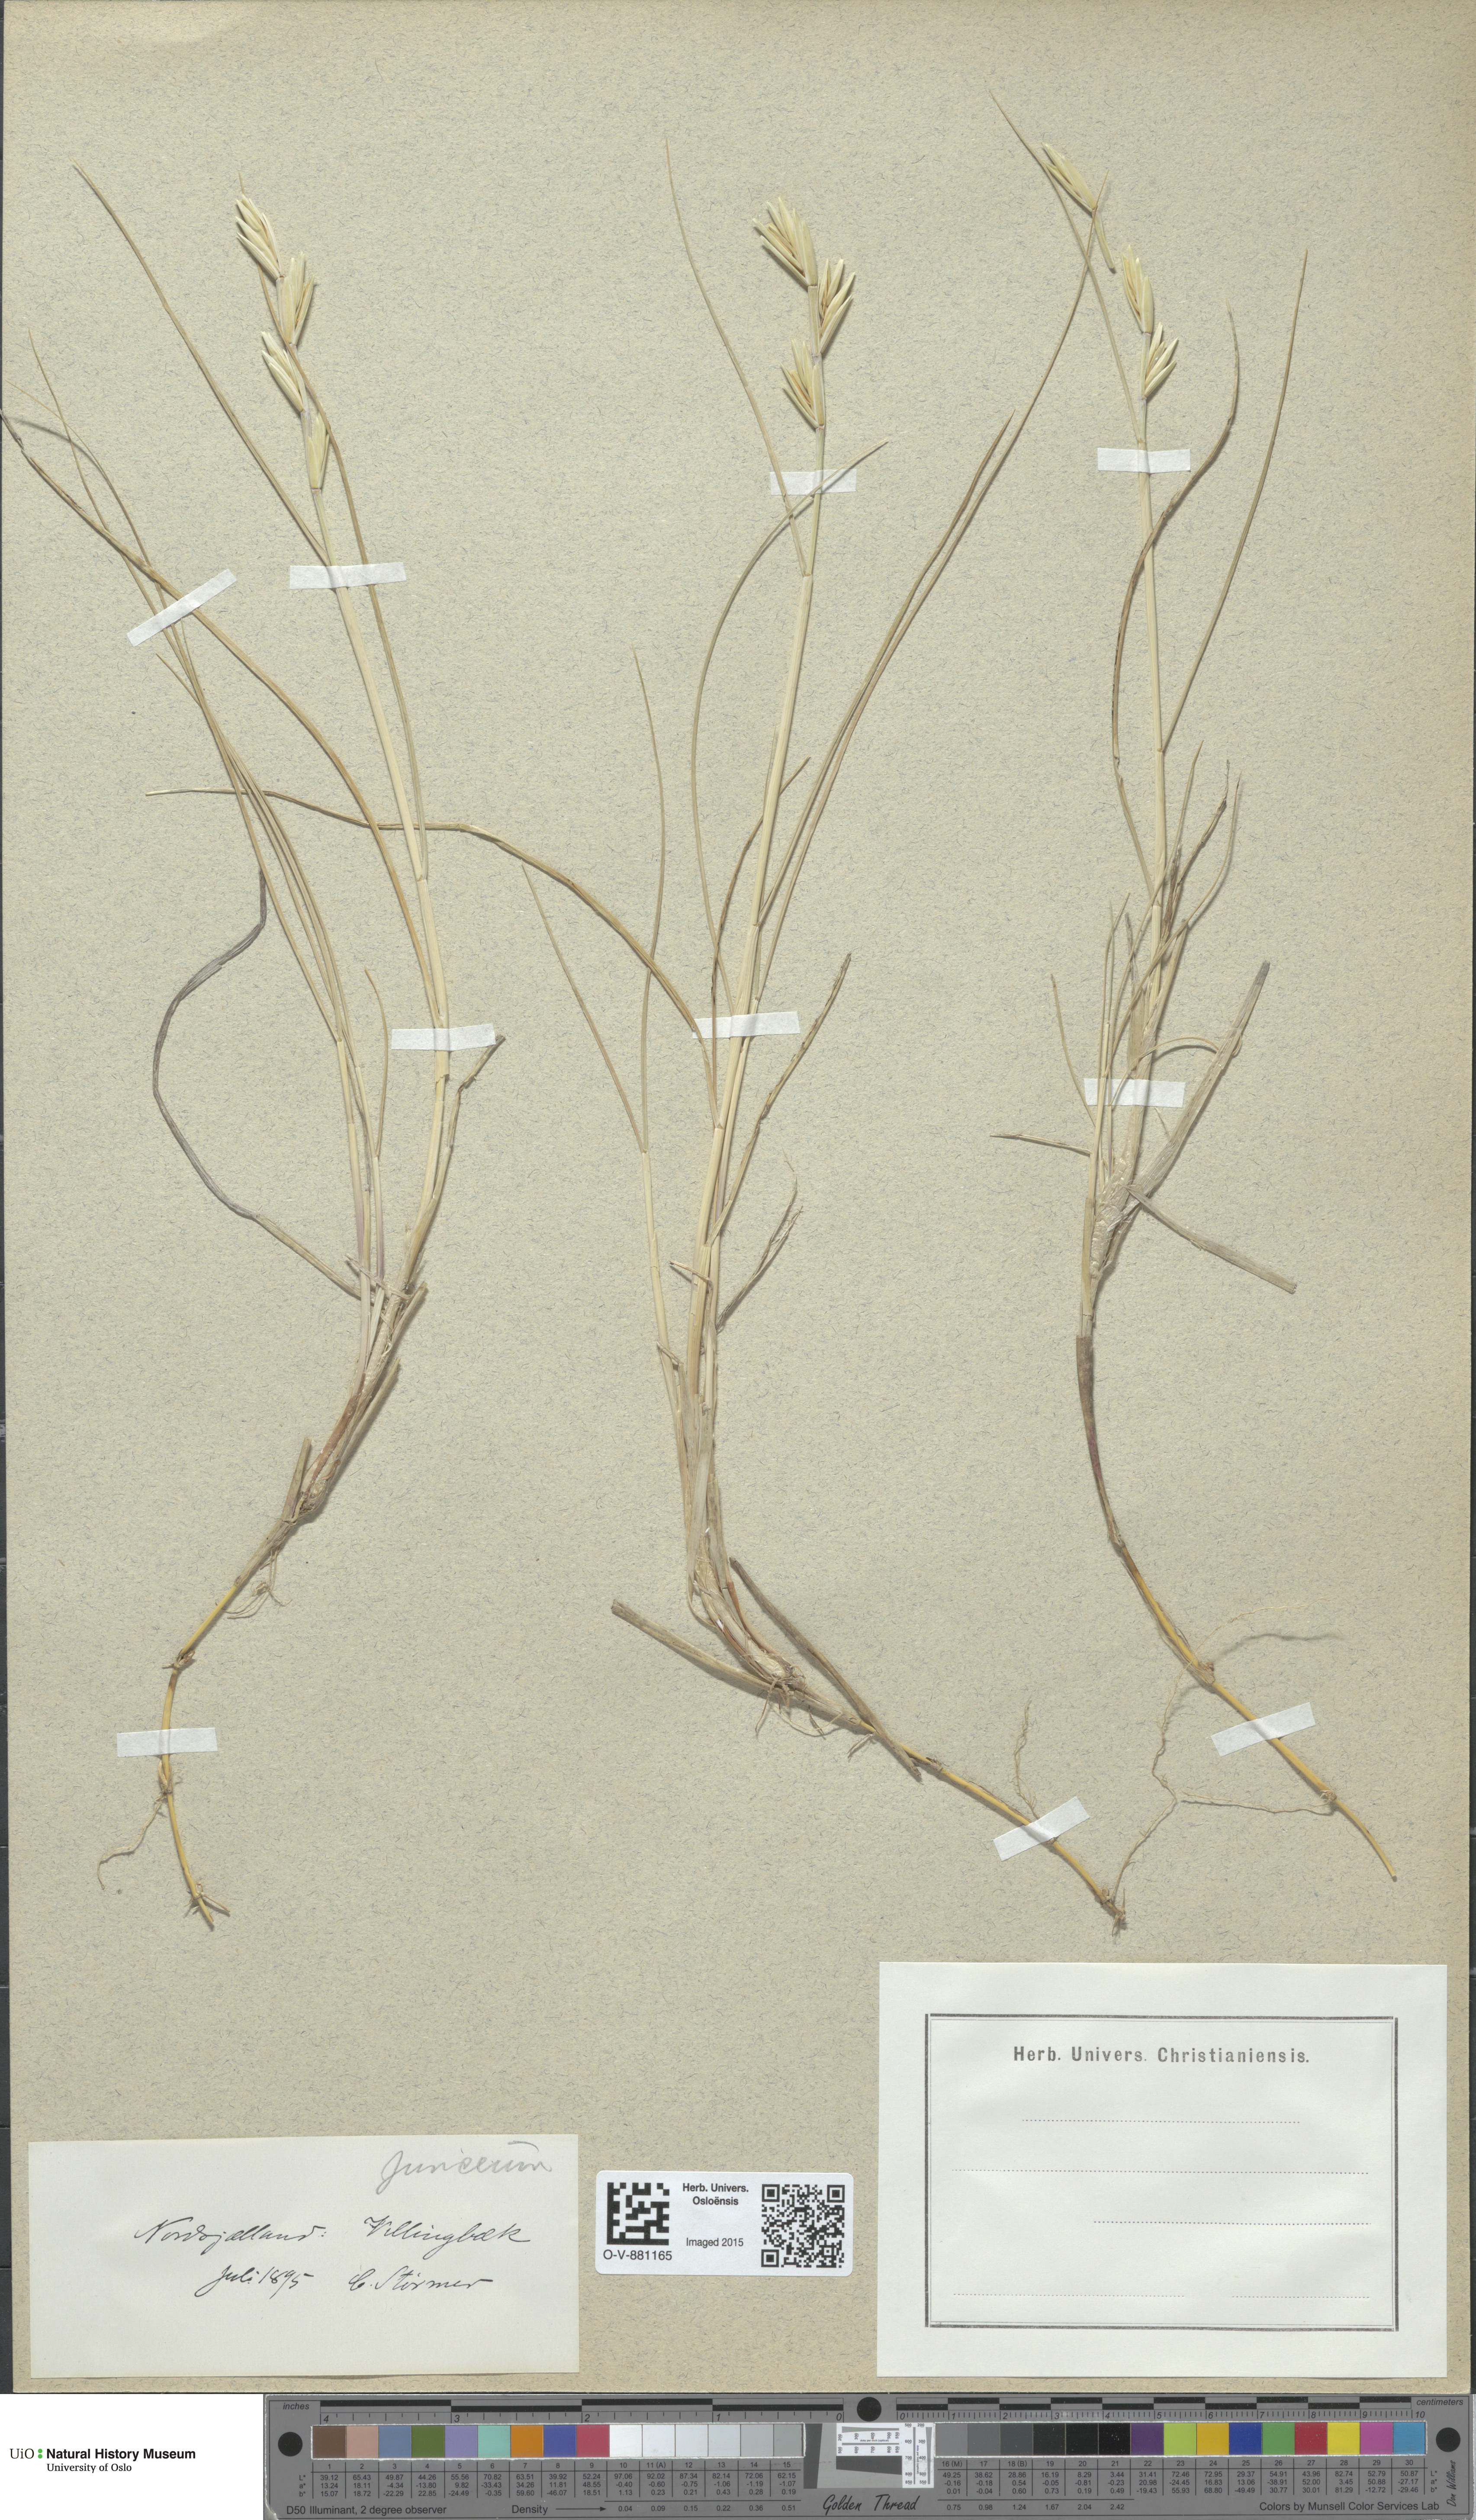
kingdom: Plantae
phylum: Tracheophyta
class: Liliopsida
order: Poales
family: Poaceae
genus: Thinopyrum
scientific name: Thinopyrum junceum
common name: Russian wheatgrass
